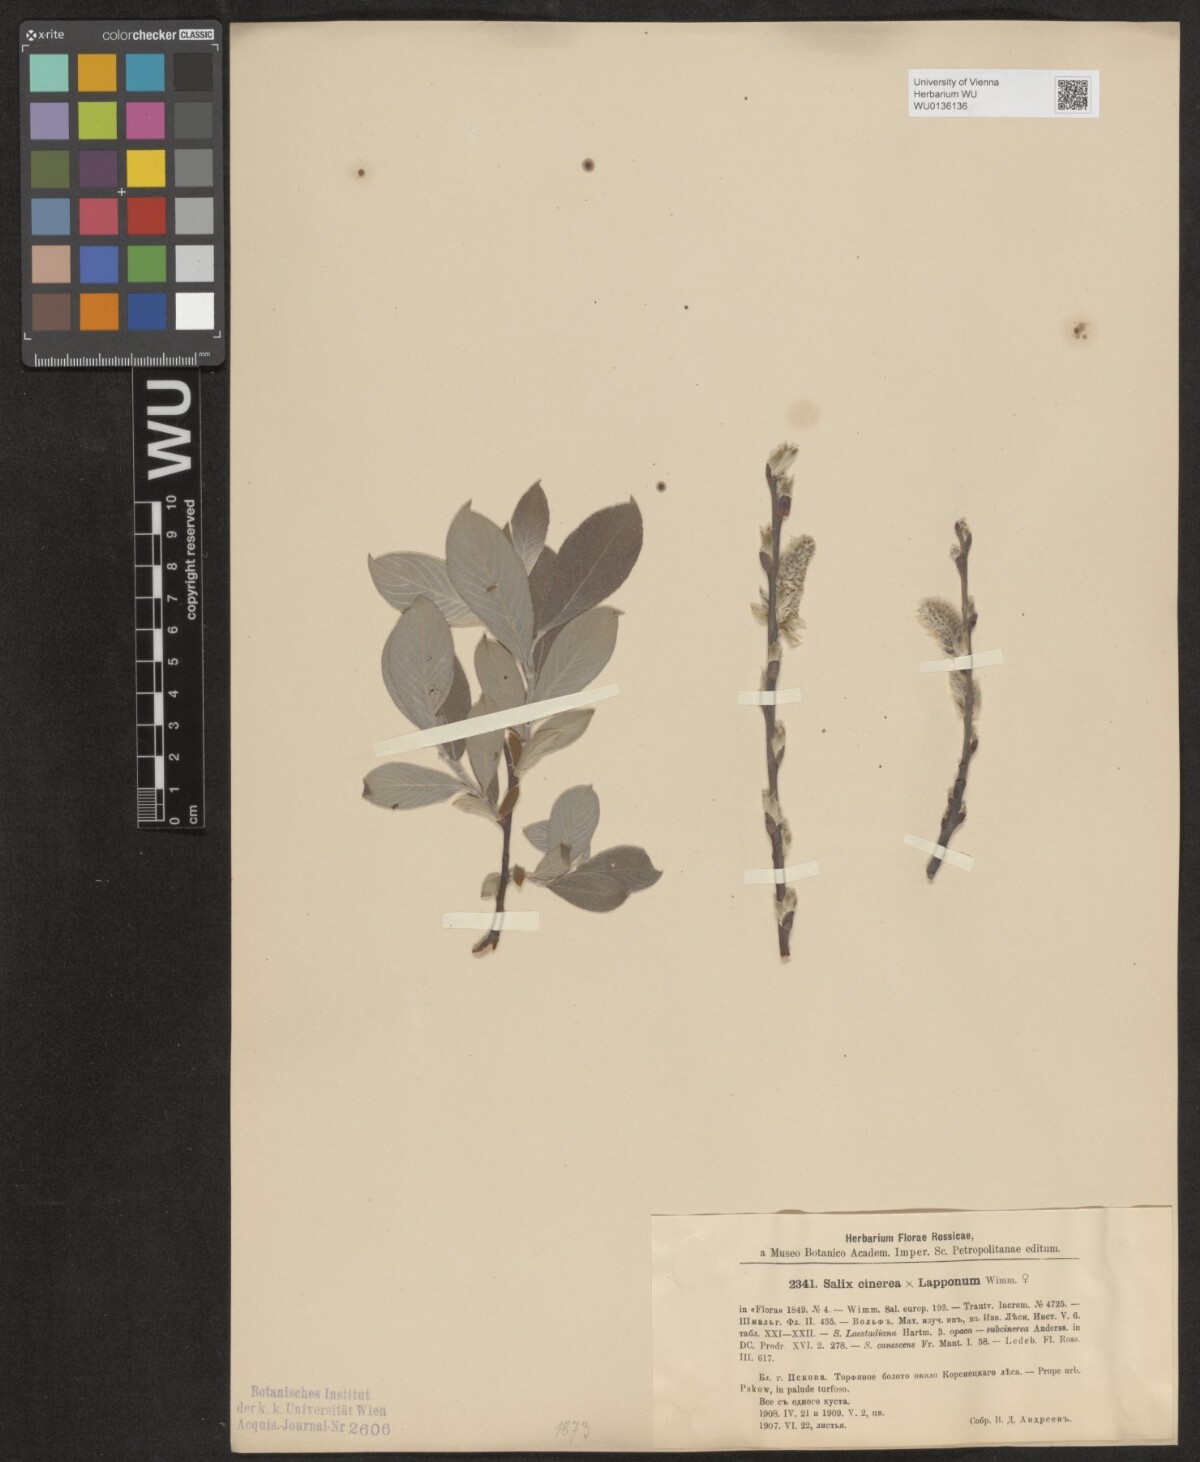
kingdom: Plantae
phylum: Tracheophyta
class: Magnoliopsida
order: Malpighiales
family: Salicaceae
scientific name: Salicaceae
